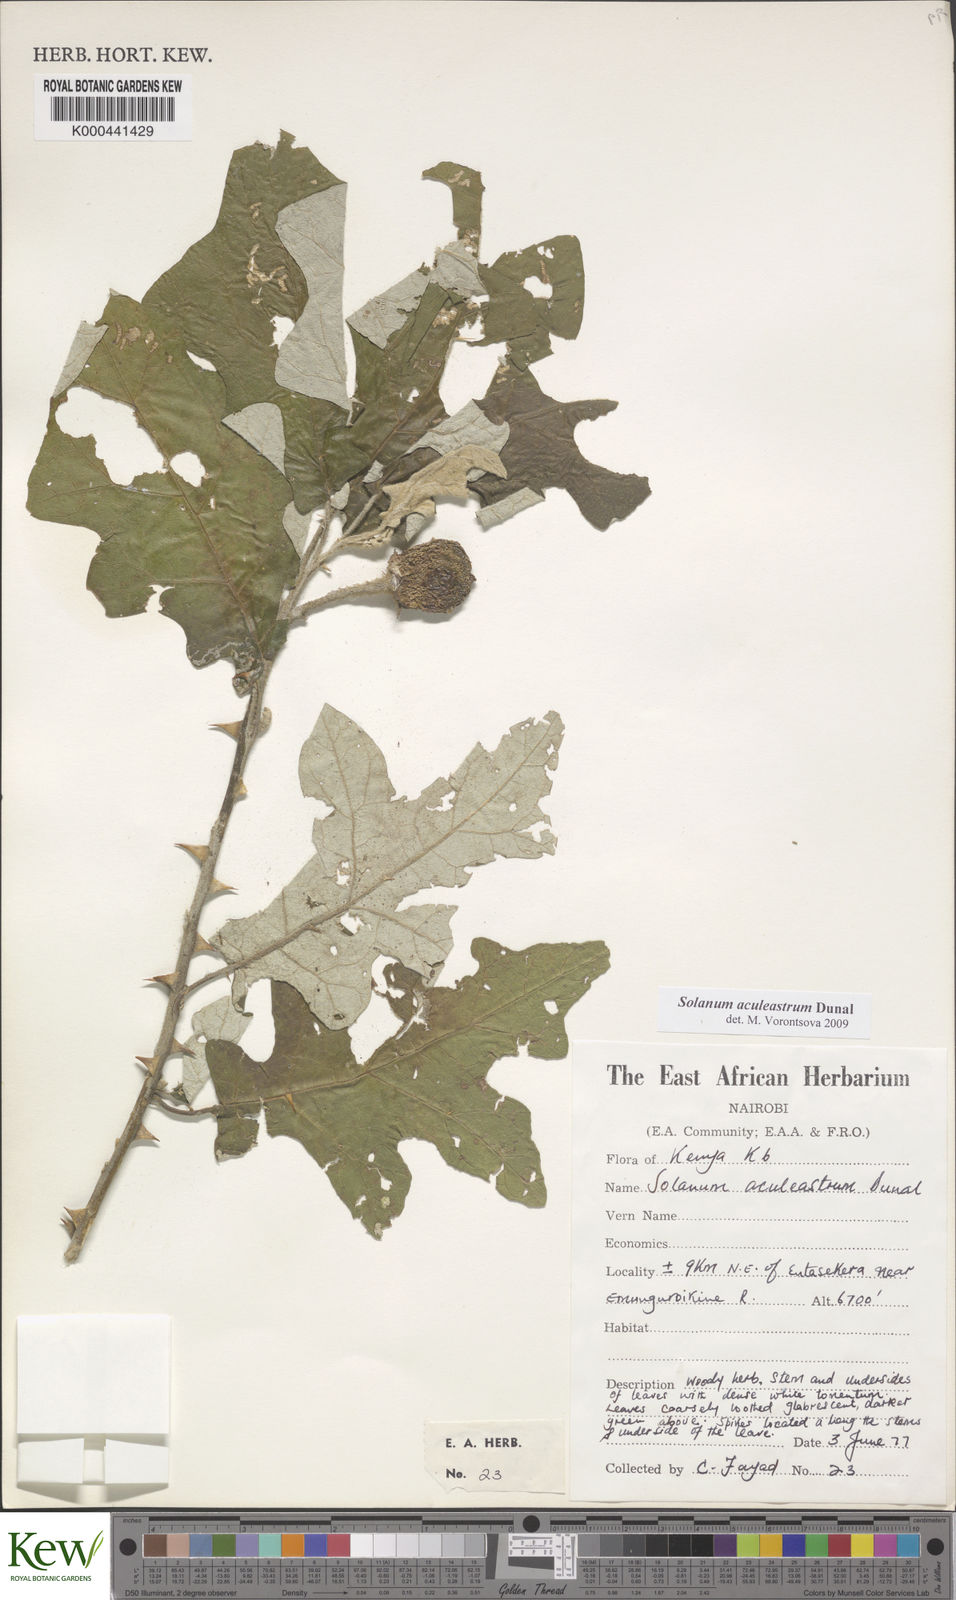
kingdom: Plantae
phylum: Tracheophyta
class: Magnoliopsida
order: Solanales
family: Solanaceae
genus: Solanum
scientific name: Solanum aculeastrum
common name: Goat bitter-apple
